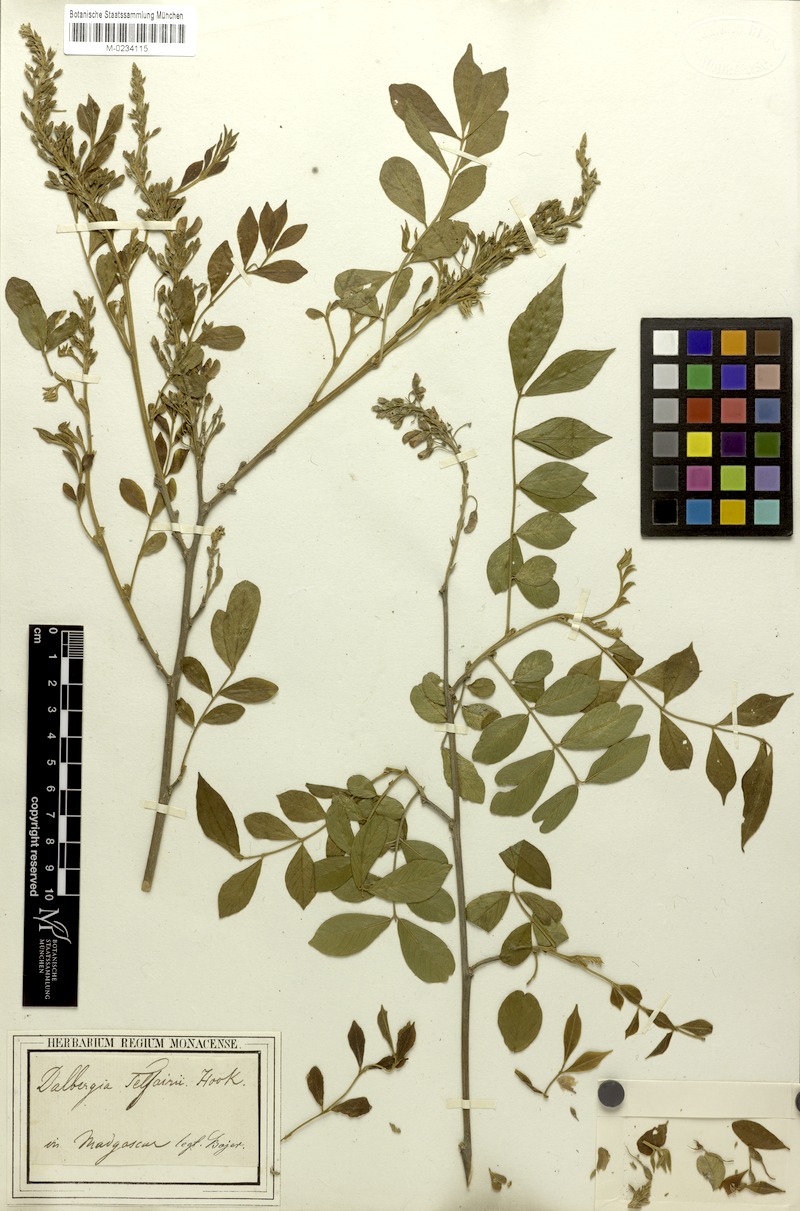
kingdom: Plantae
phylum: Tracheophyta
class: Magnoliopsida
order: Fabales
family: Fabaceae
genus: Mundulea
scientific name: Mundulea sericea
